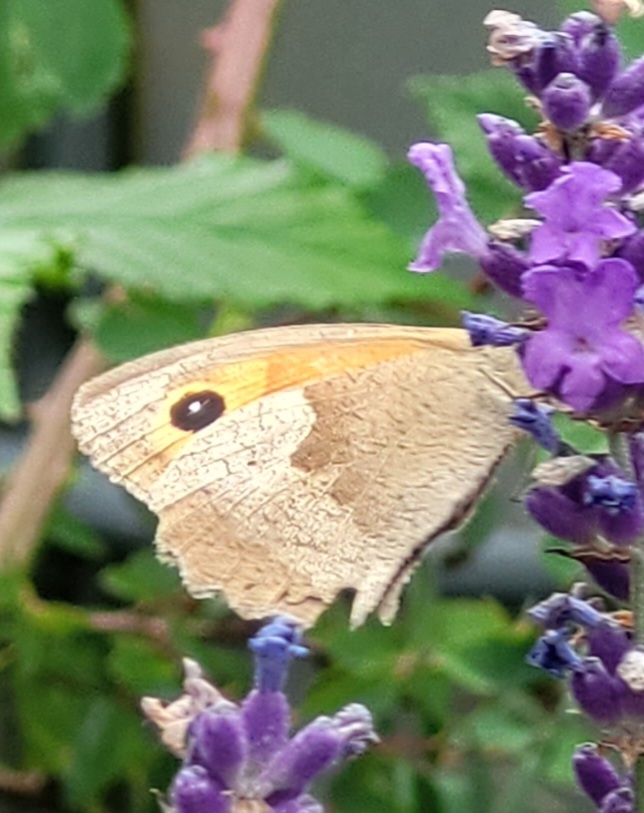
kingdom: Animalia
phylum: Arthropoda
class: Insecta
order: Lepidoptera
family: Nymphalidae
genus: Maniola
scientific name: Maniola jurtina
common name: Græsrandøje
